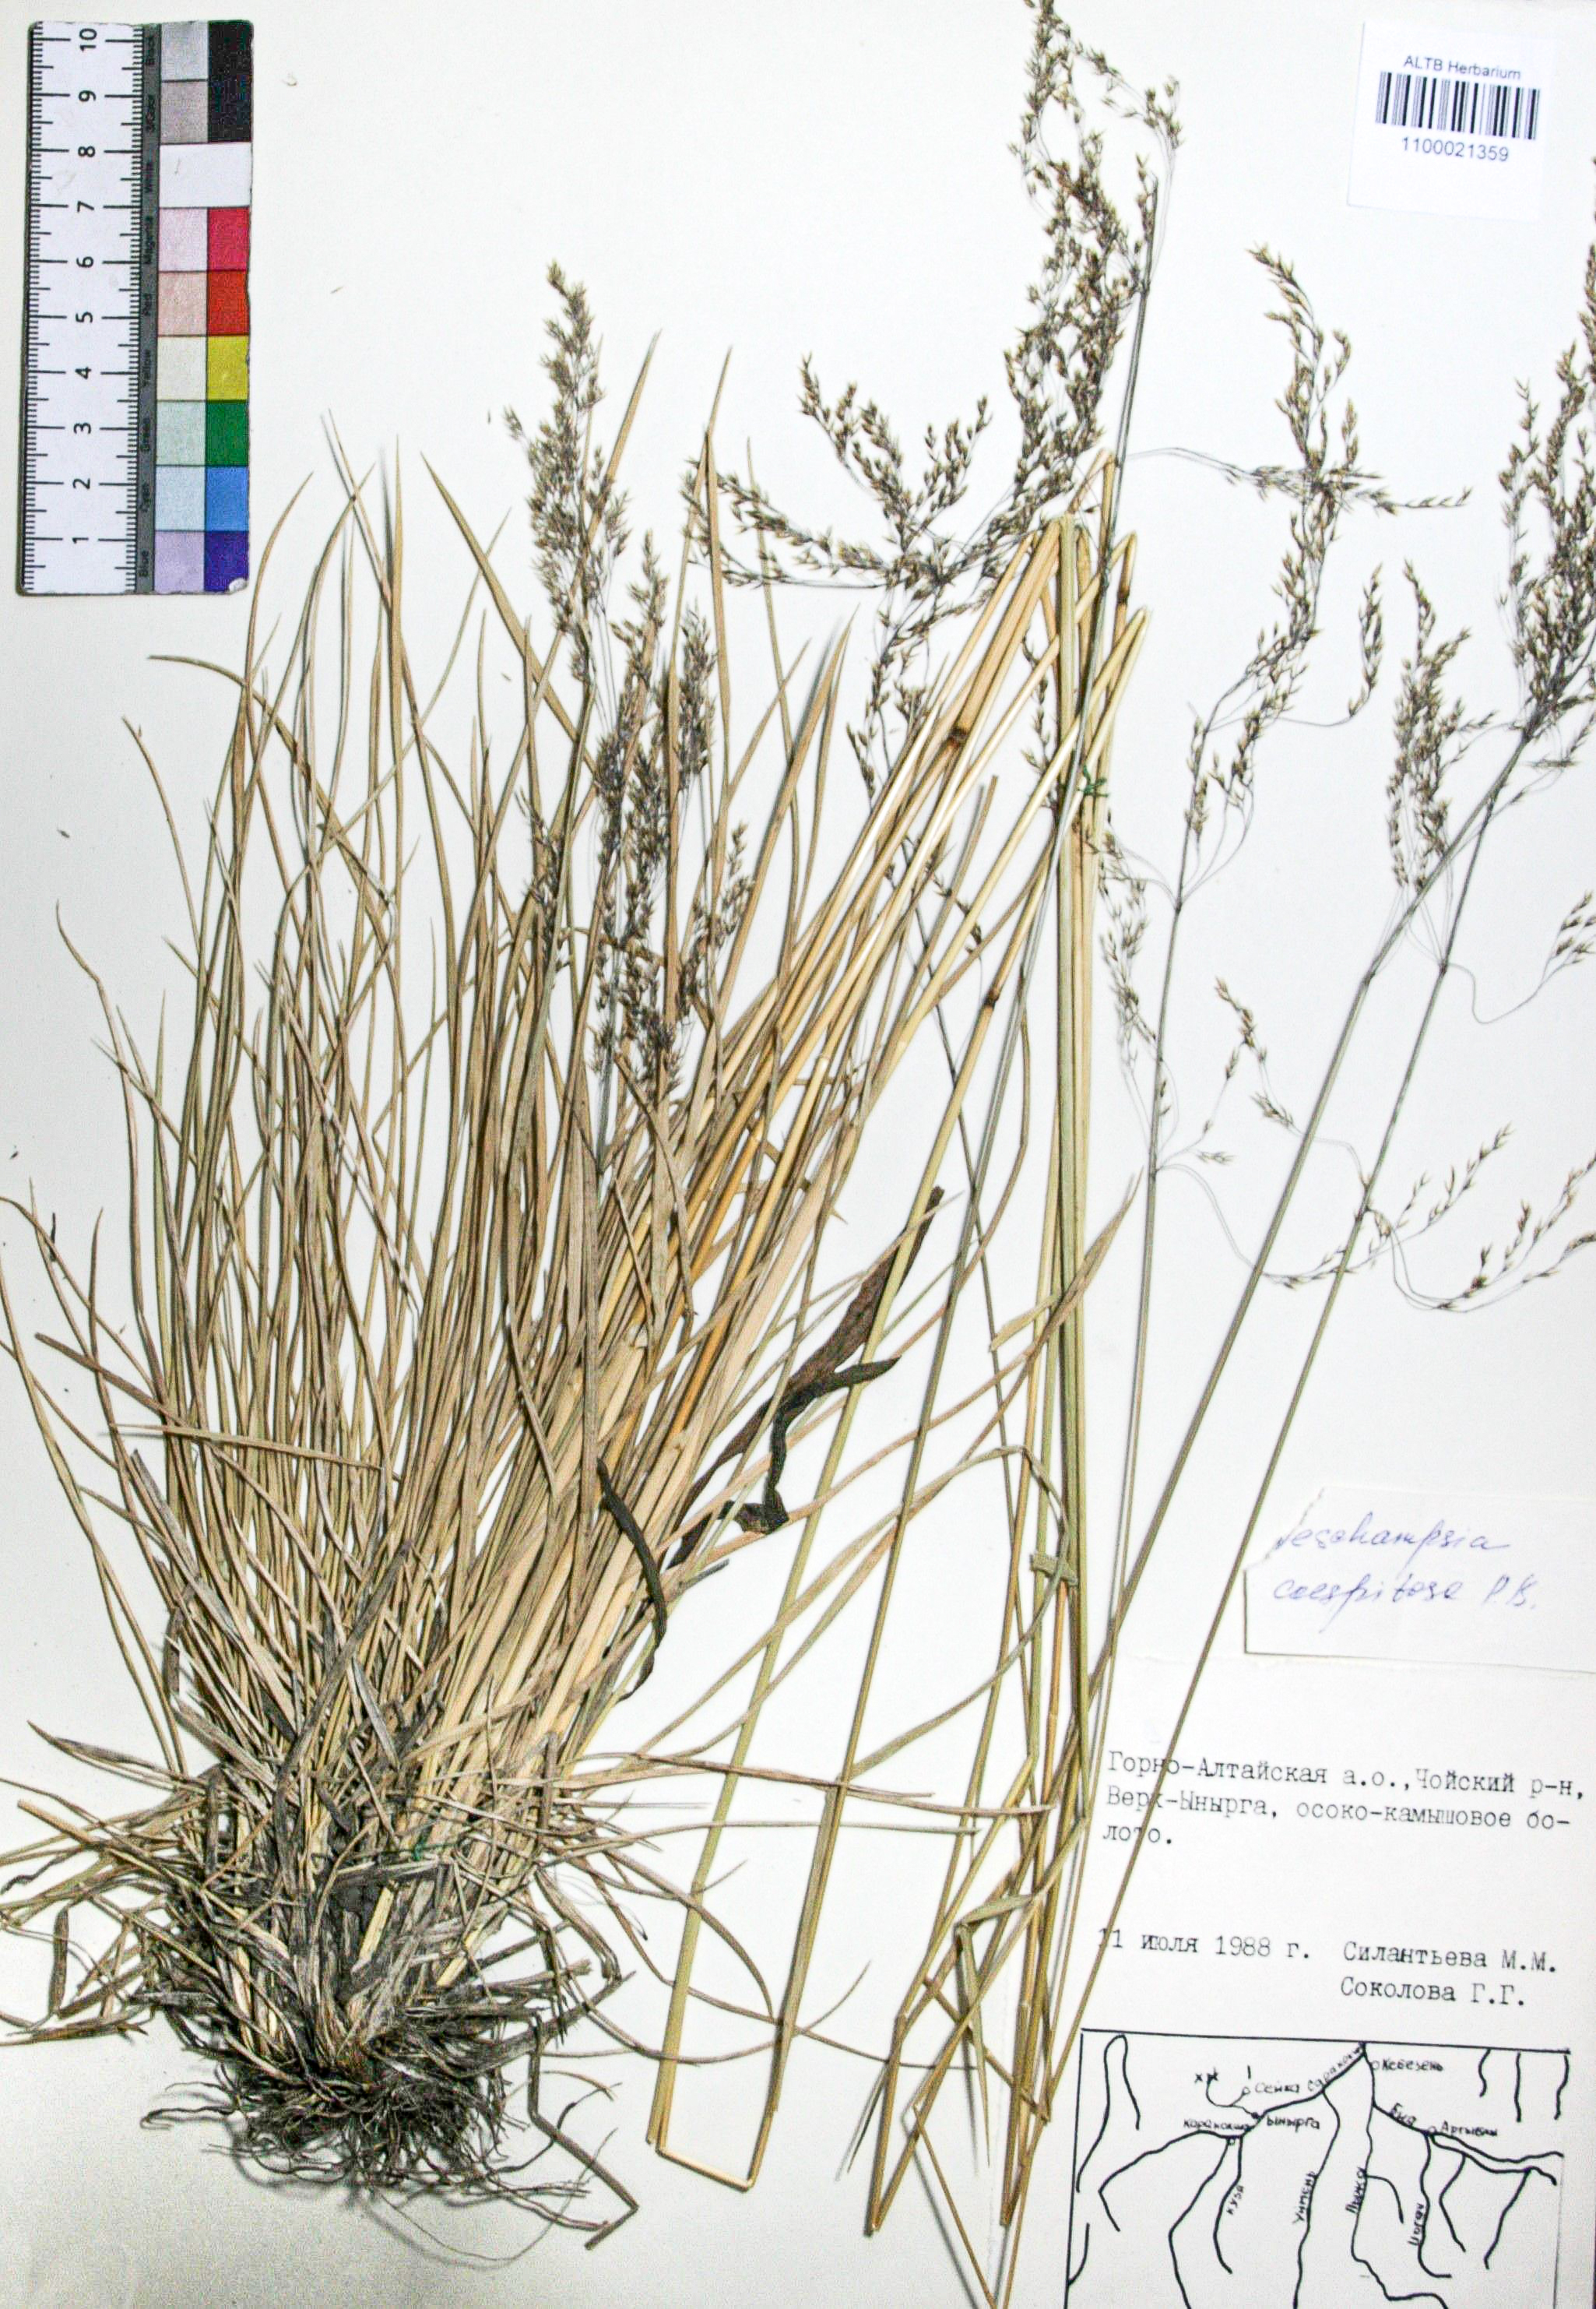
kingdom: Plantae
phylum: Tracheophyta
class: Liliopsida
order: Poales
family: Poaceae
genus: Deschampsia
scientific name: Deschampsia cespitosa
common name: Tufted hair-grass
